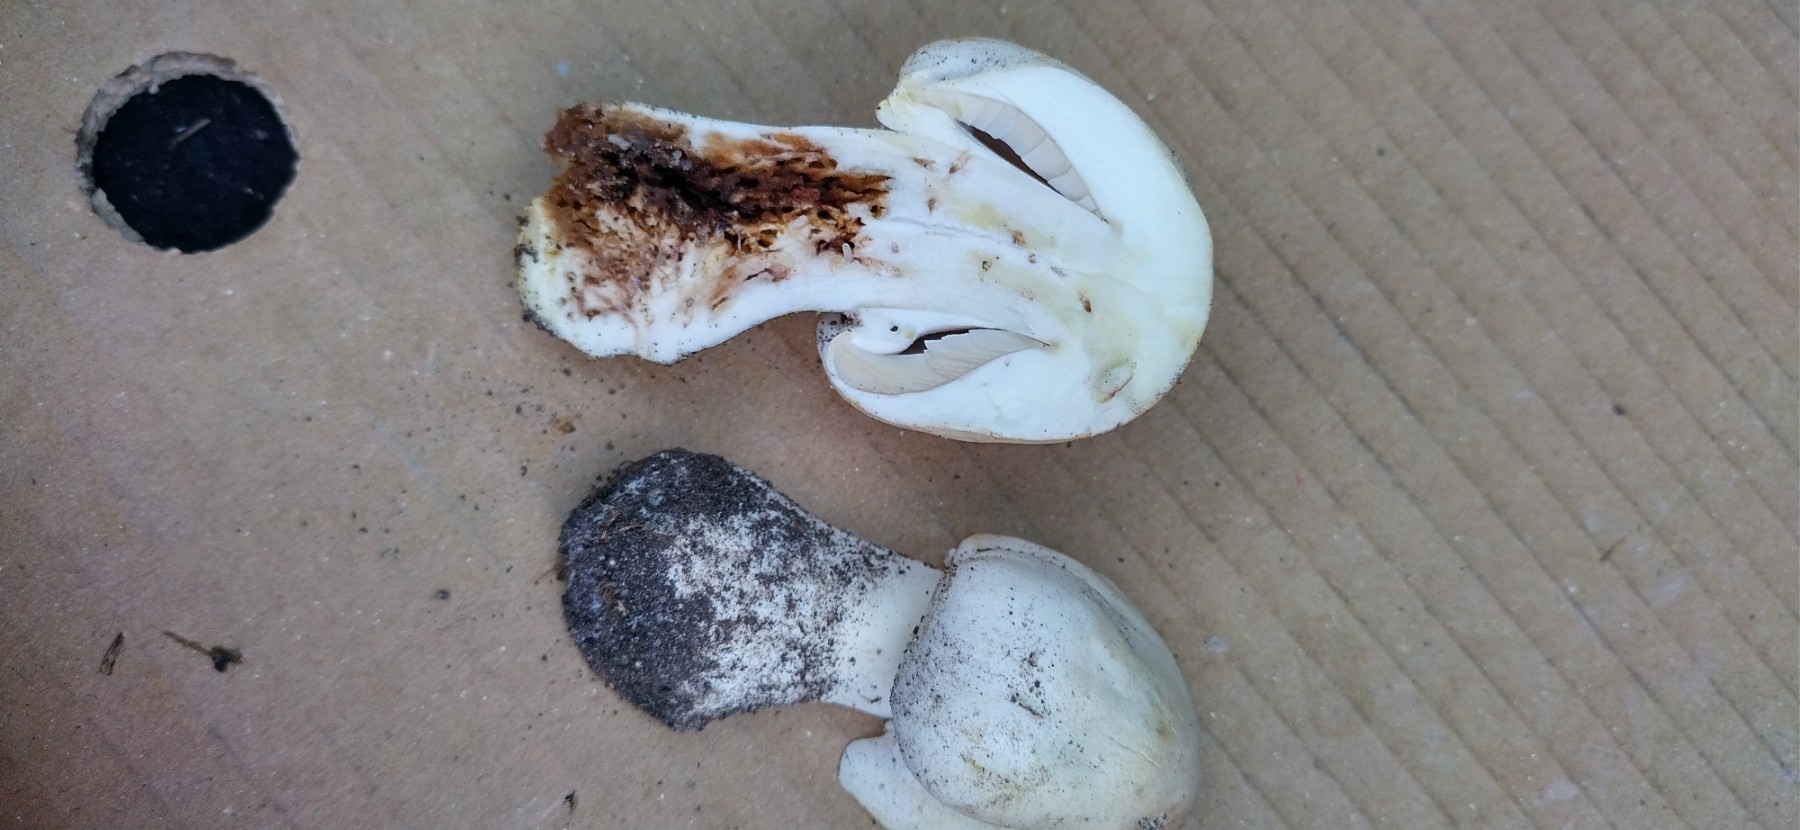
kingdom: Fungi
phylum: Basidiomycota
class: Agaricomycetes
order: Agaricales
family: Agaricaceae
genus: Agaricus
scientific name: Agaricus xanthodermus
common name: karbol-champignon
